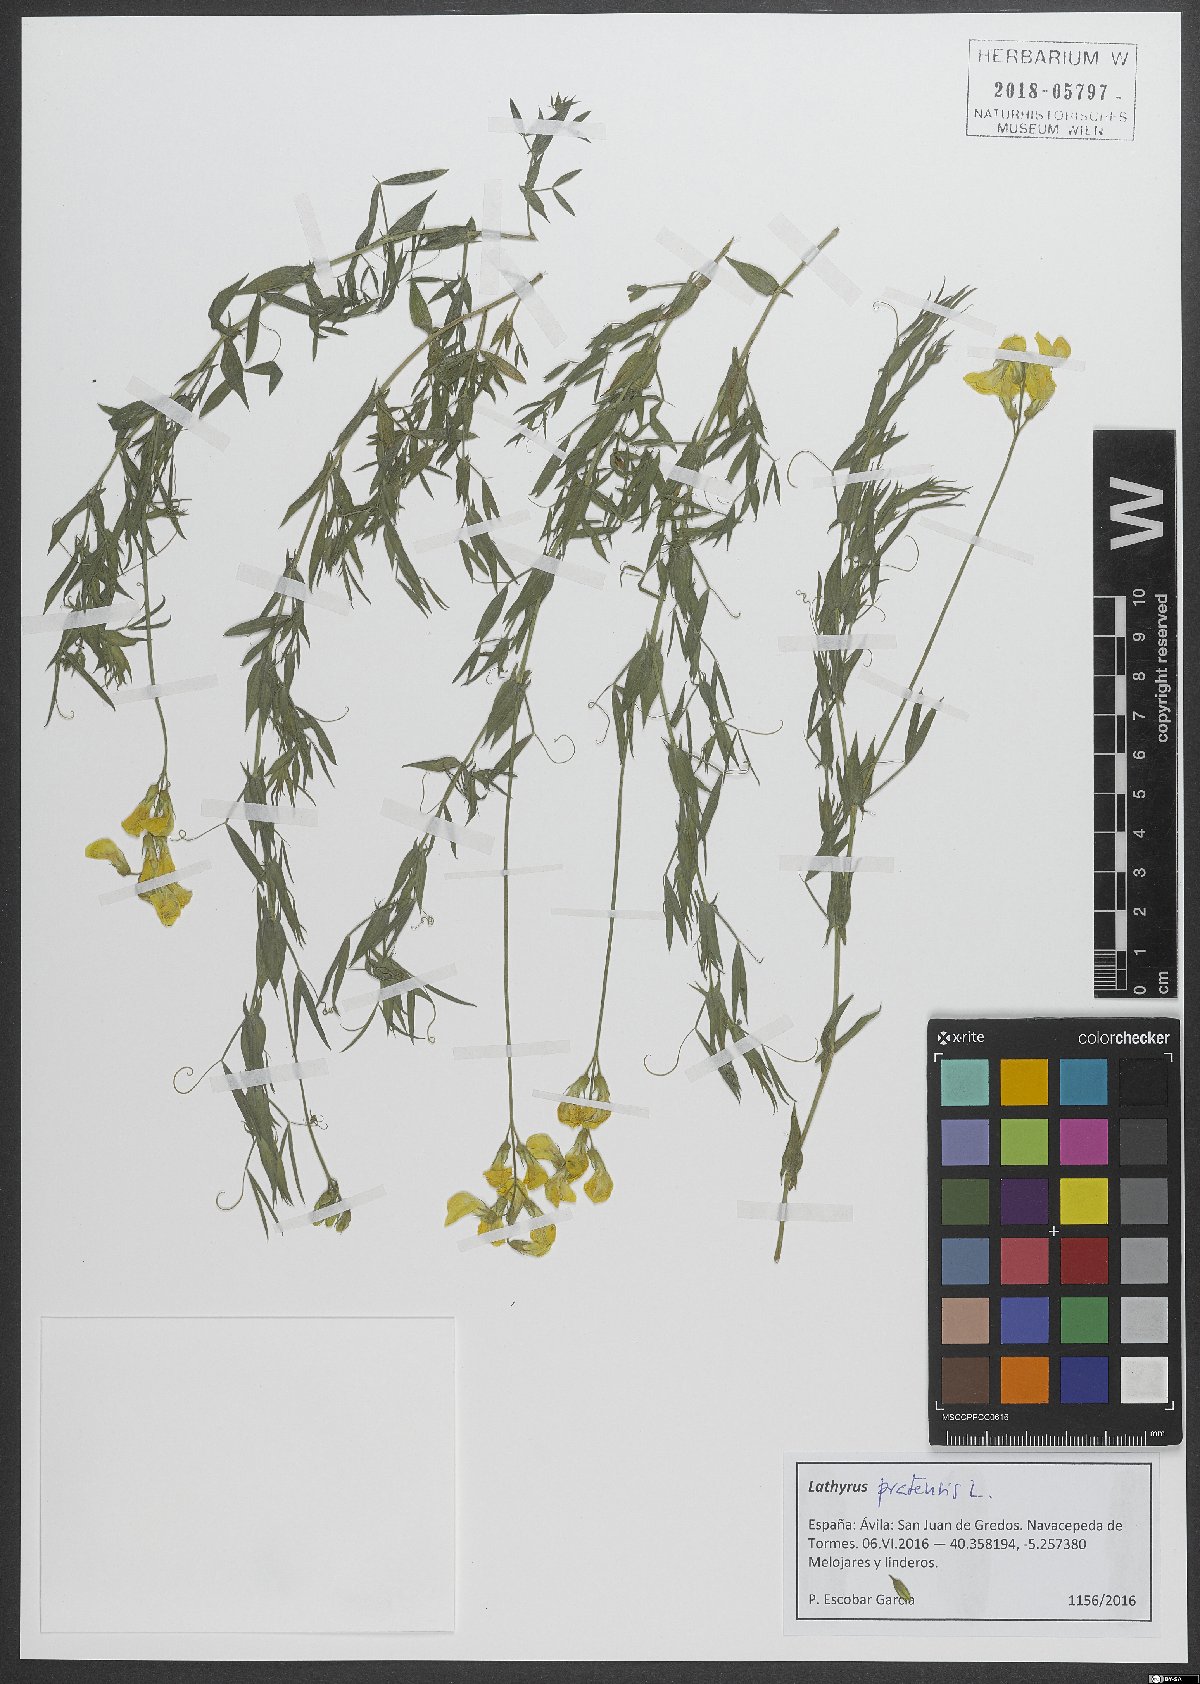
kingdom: Plantae
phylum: Tracheophyta
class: Magnoliopsida
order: Fabales
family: Fabaceae
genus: Lathyrus
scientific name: Lathyrus pratensis
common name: Meadow vetchling
